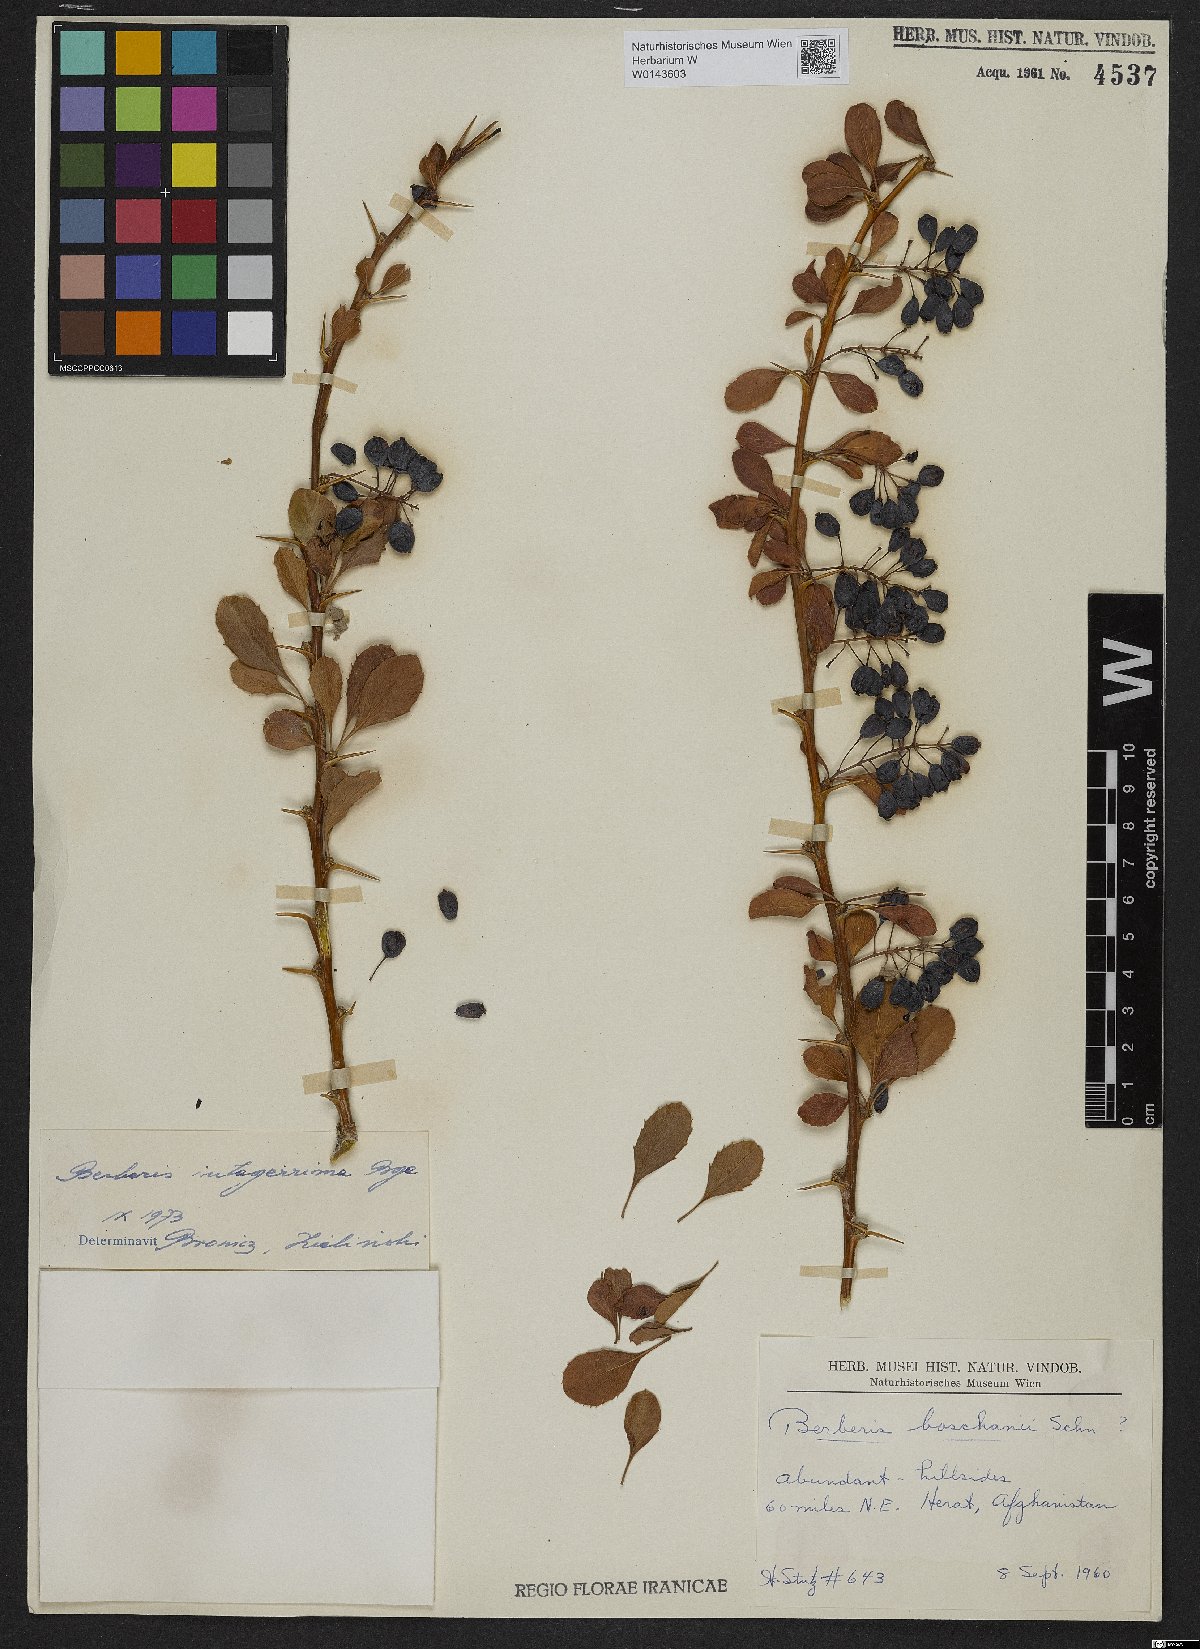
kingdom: Plantae
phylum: Tracheophyta
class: Magnoliopsida
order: Ranunculales
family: Berberidaceae
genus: Berberis
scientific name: Berberis integerrima
